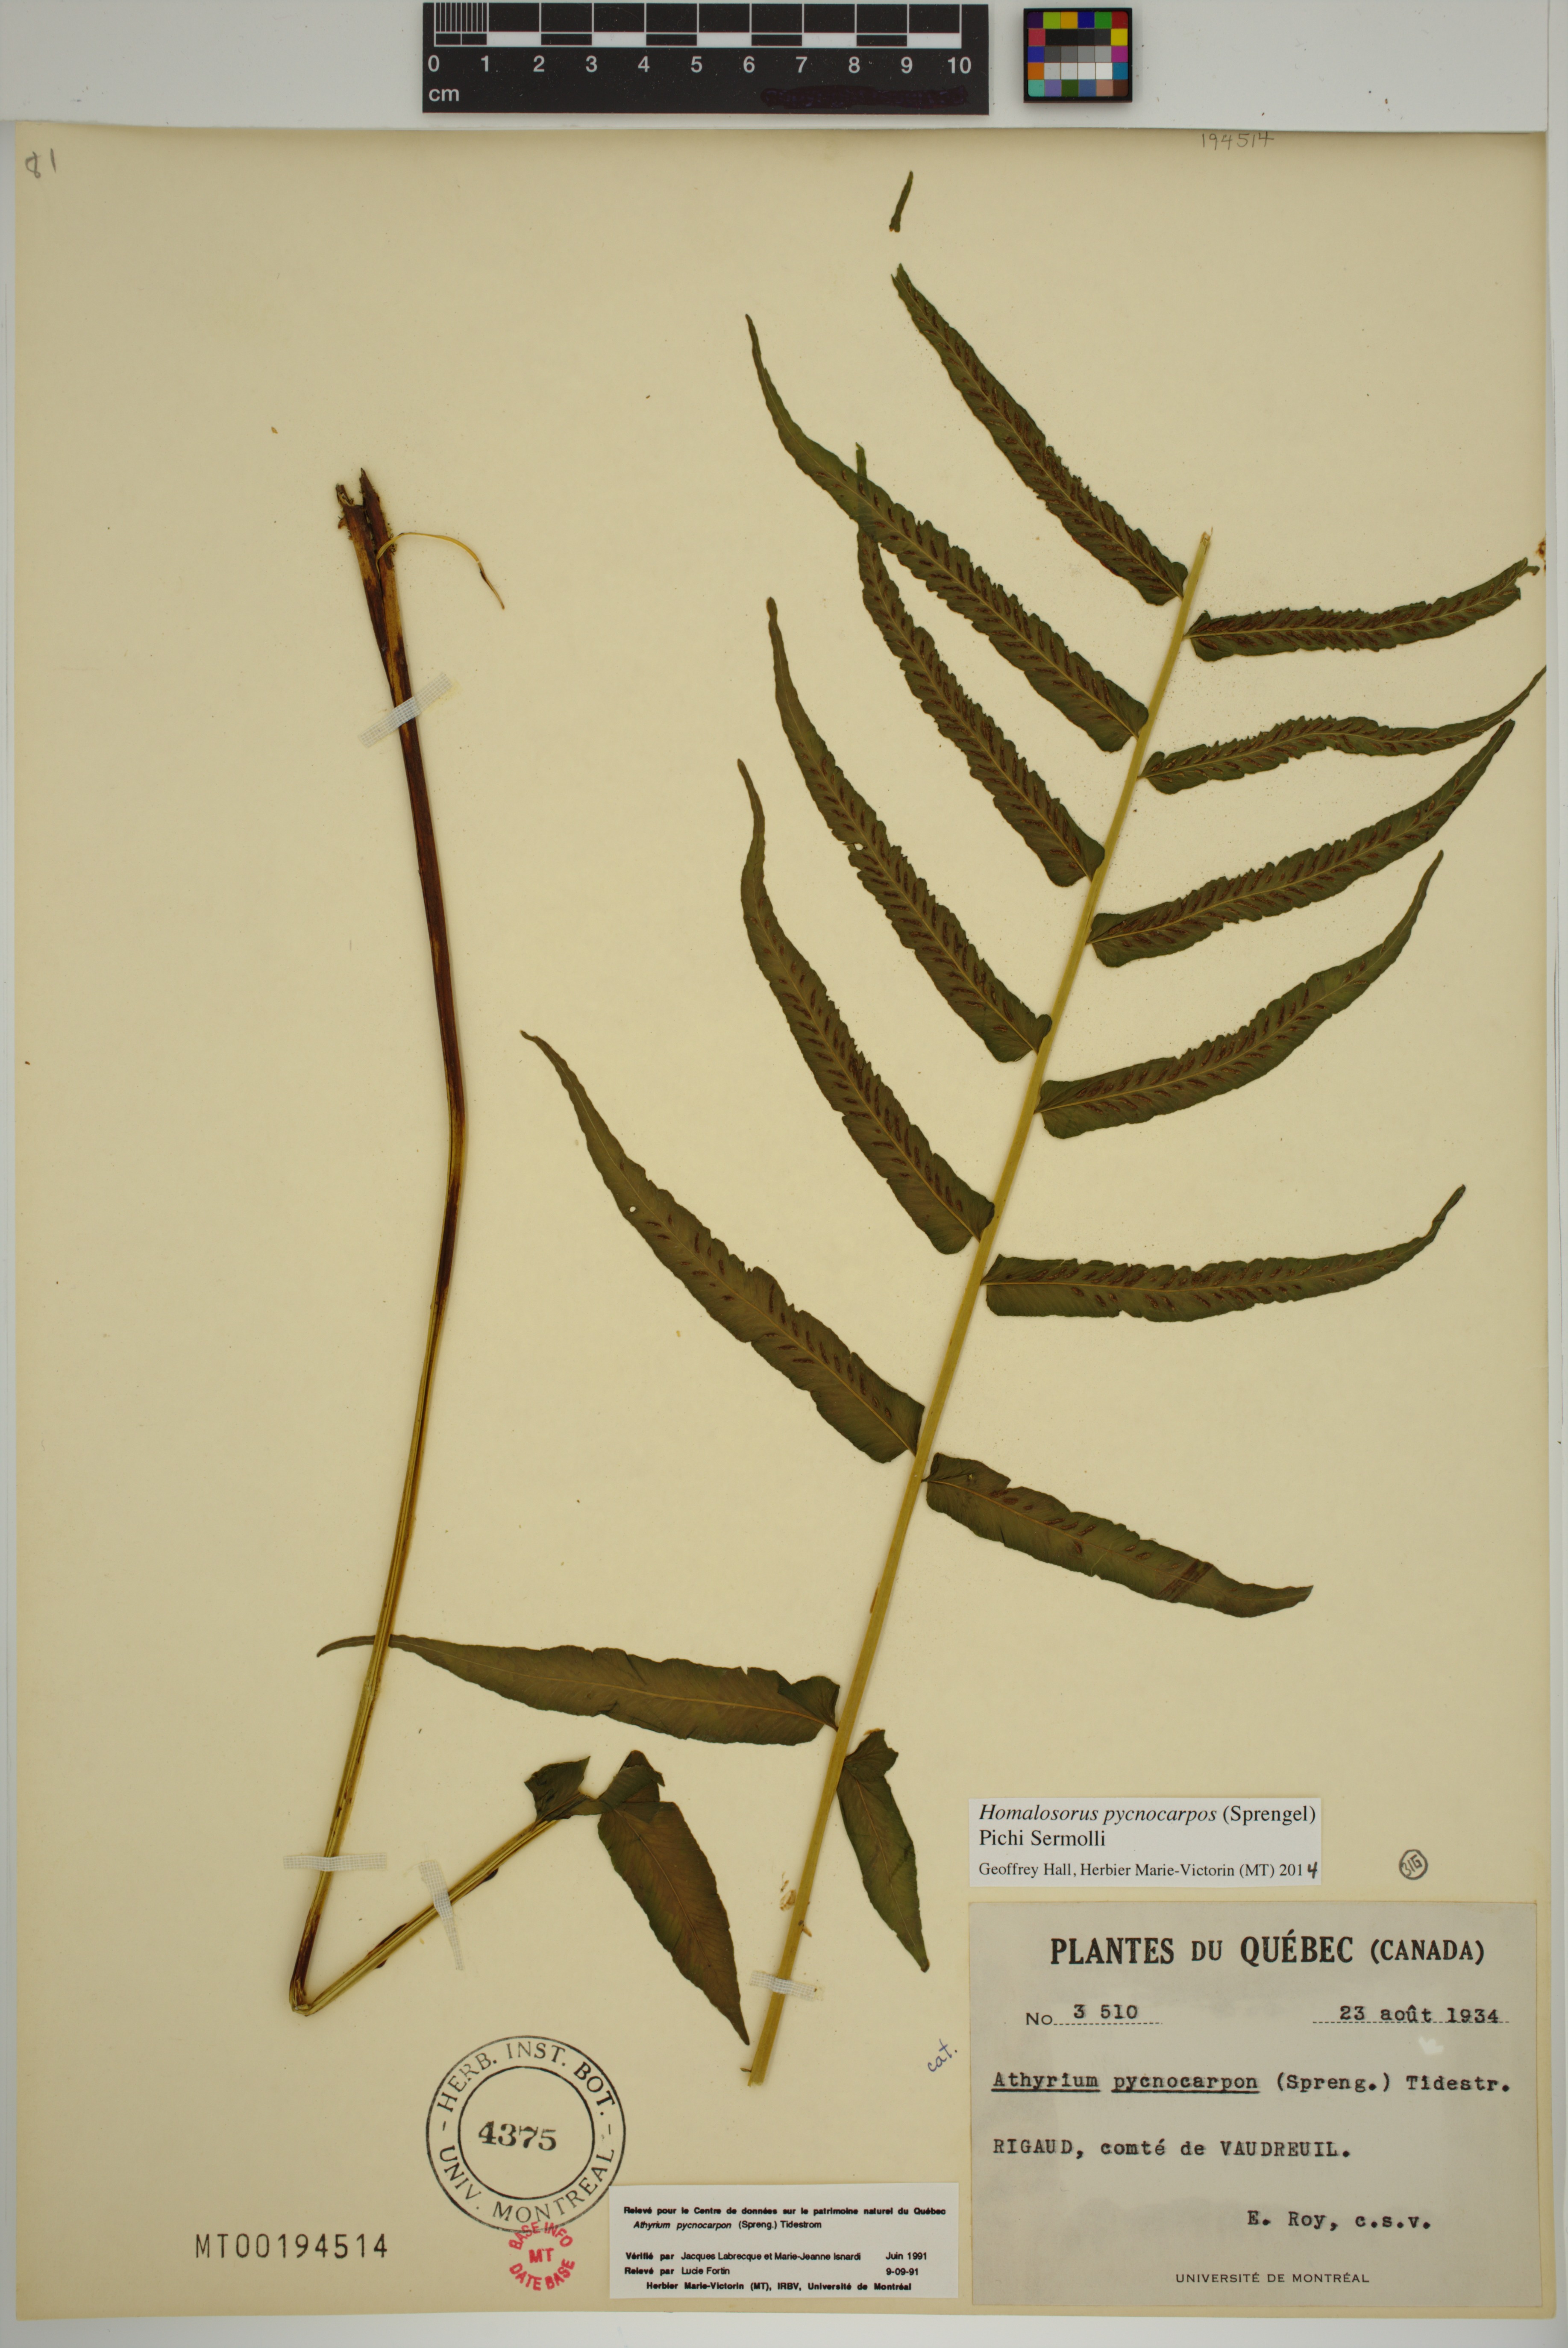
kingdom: Plantae
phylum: Tracheophyta
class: Polypodiopsida
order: Polypodiales
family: Diplaziopsidaceae
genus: Homalosorus
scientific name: Homalosorus pycnocarpos
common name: Glade fern
